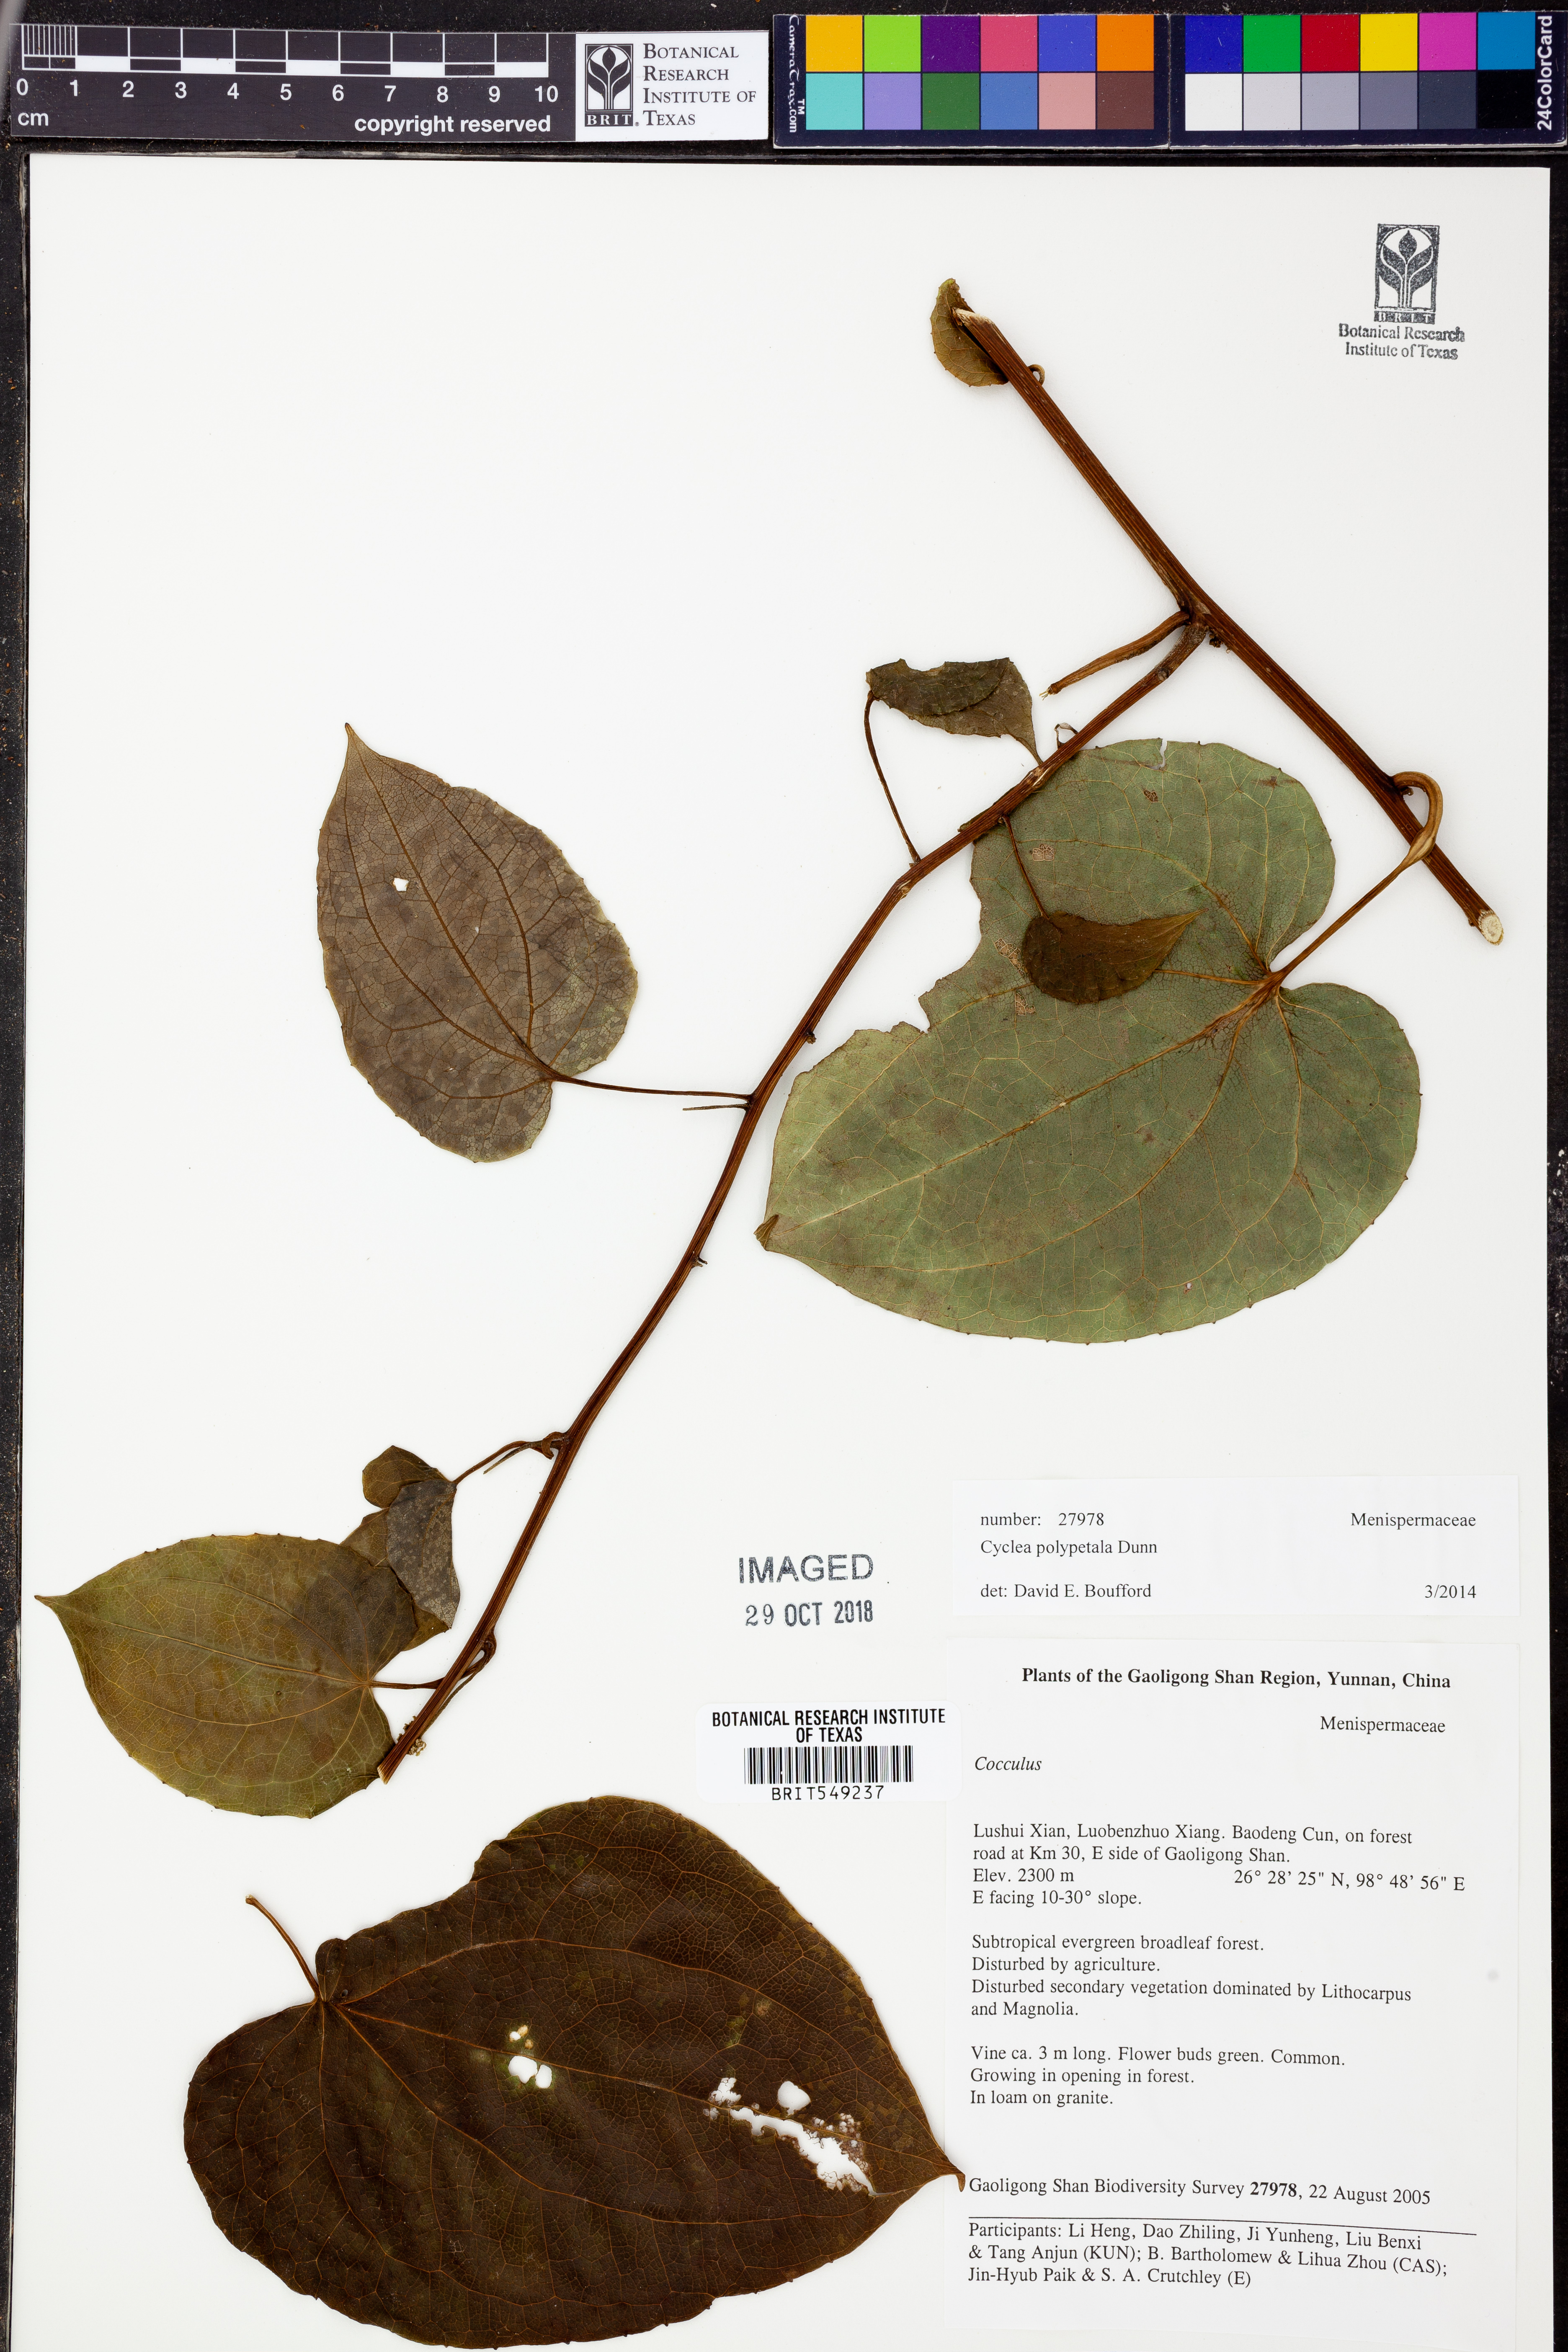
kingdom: Plantae
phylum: Tracheophyta
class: Magnoliopsida
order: Ranunculales
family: Menispermaceae
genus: Cyclea
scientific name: Cyclea polypetala
